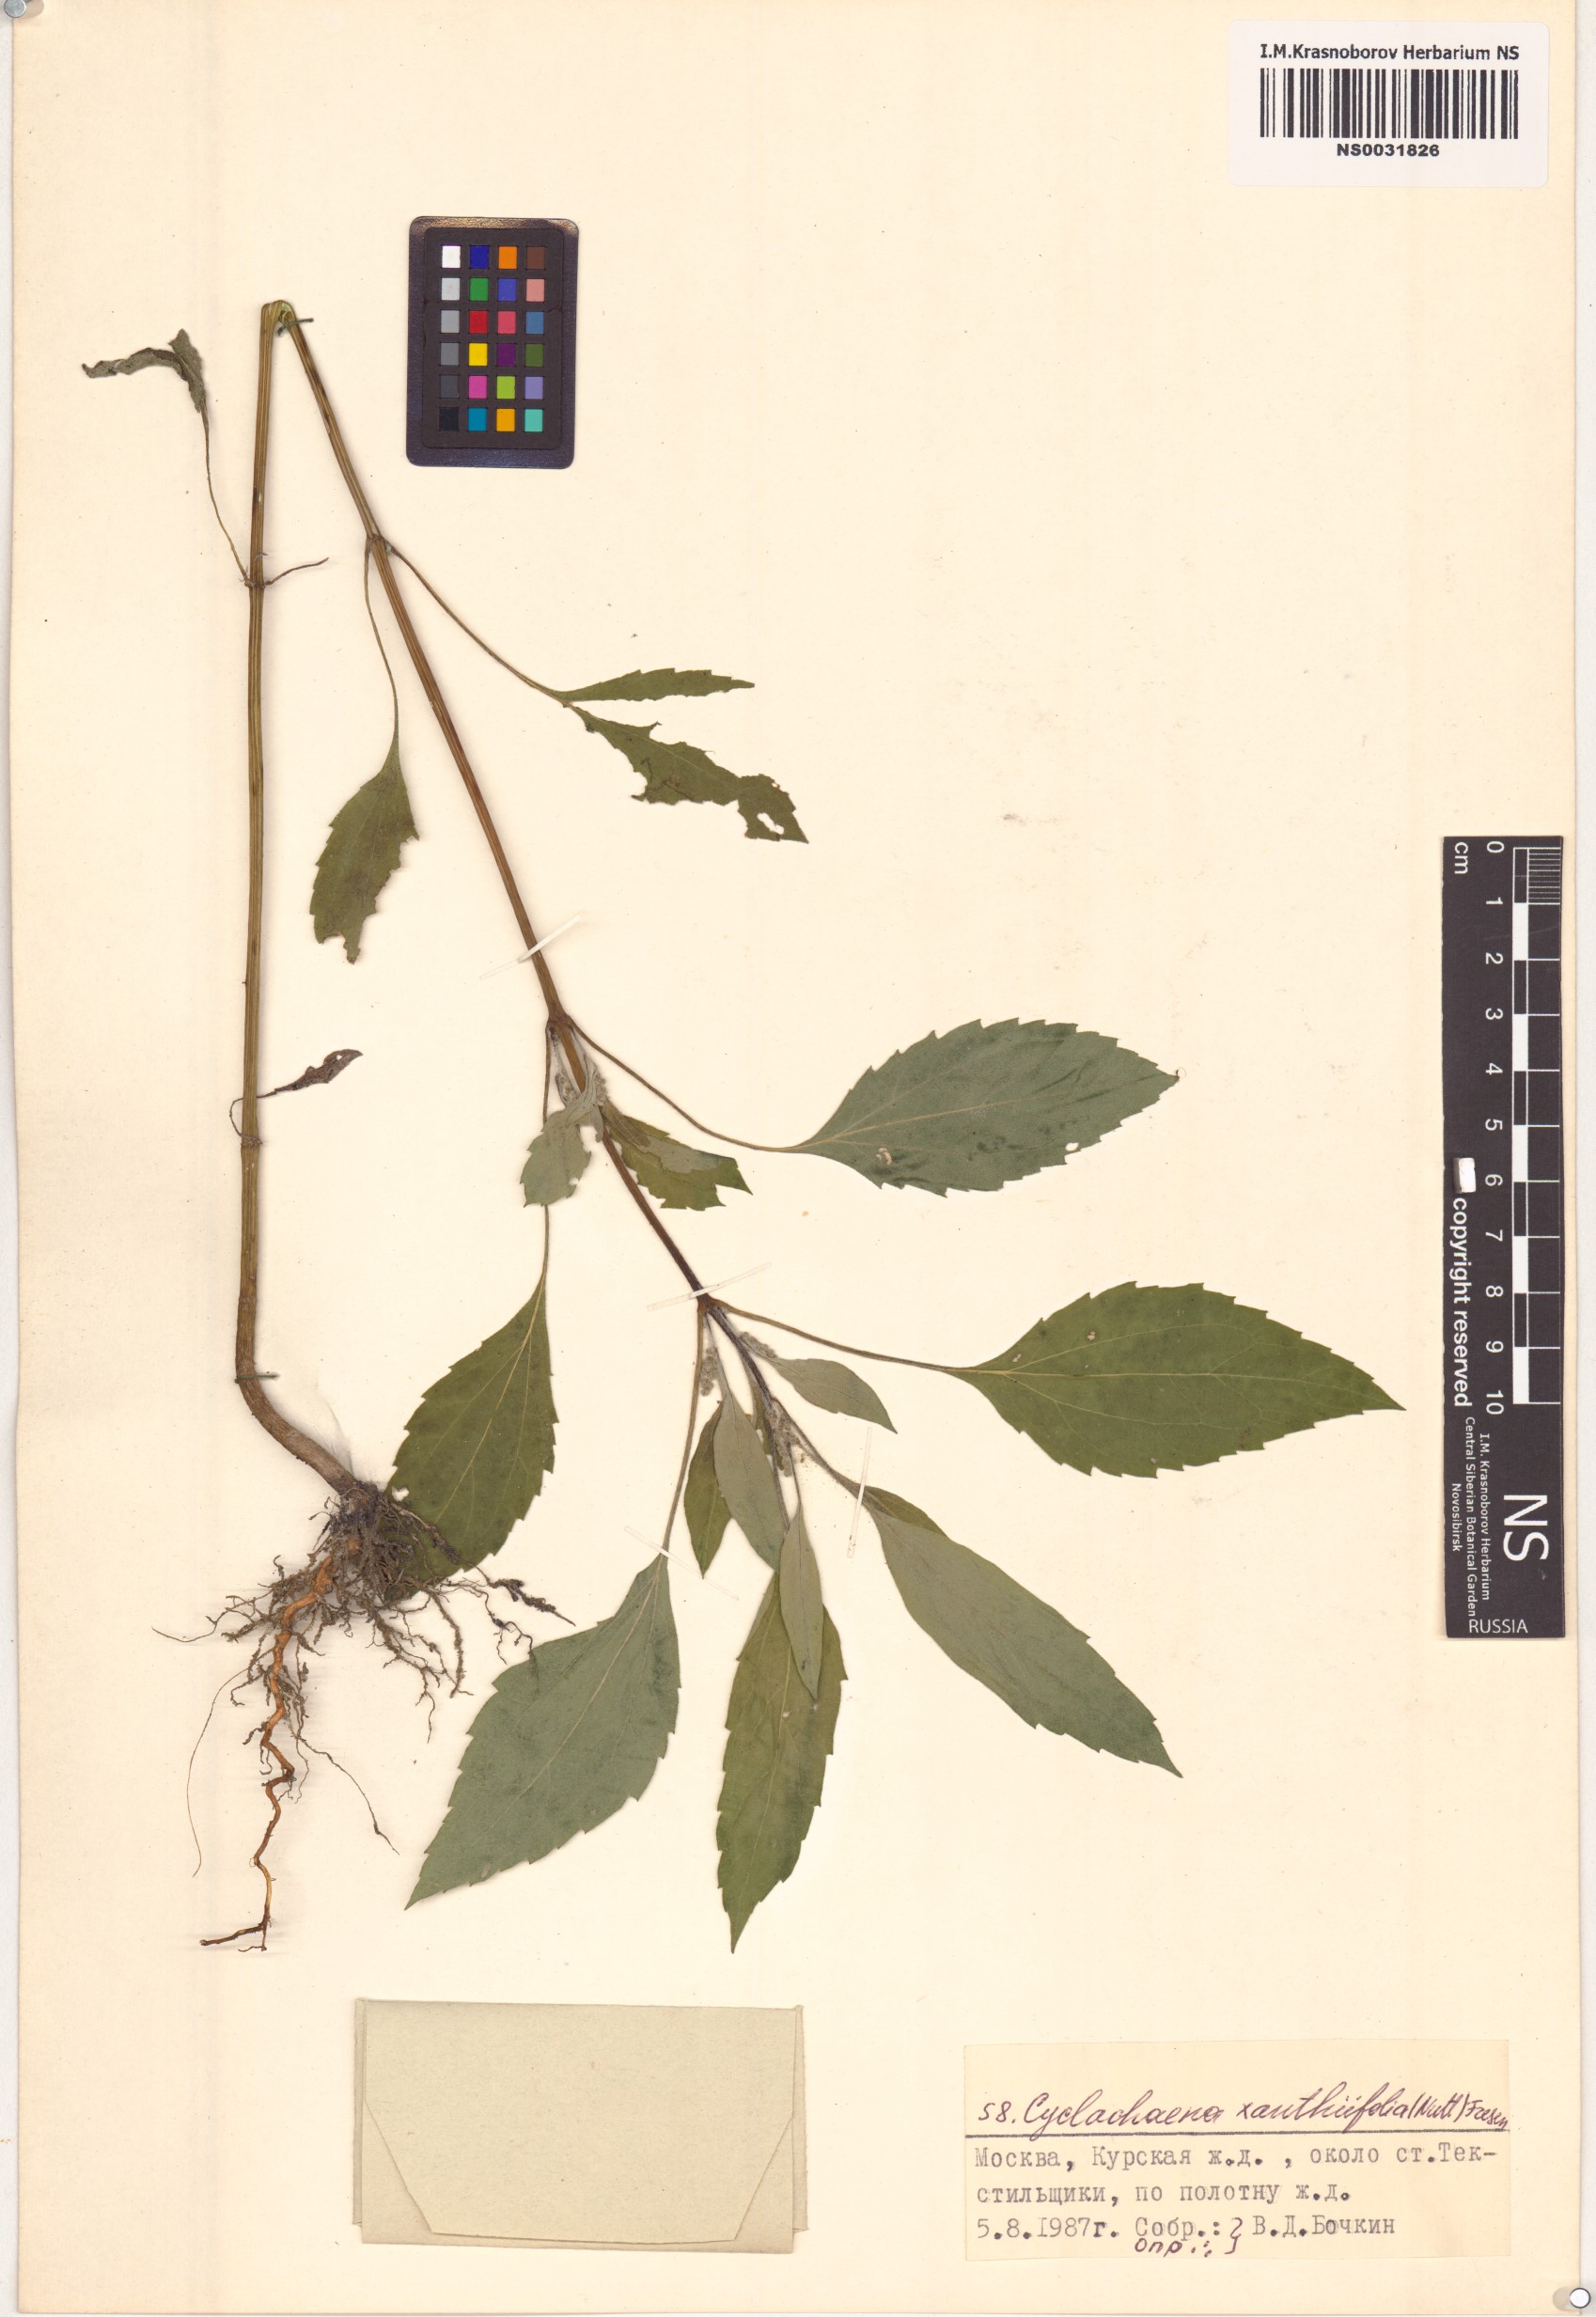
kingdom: Plantae
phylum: Tracheophyta
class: Magnoliopsida
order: Asterales
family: Asteraceae
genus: Cyclachaena
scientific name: Cyclachaena xanthiifolia
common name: Giant sumpweed
